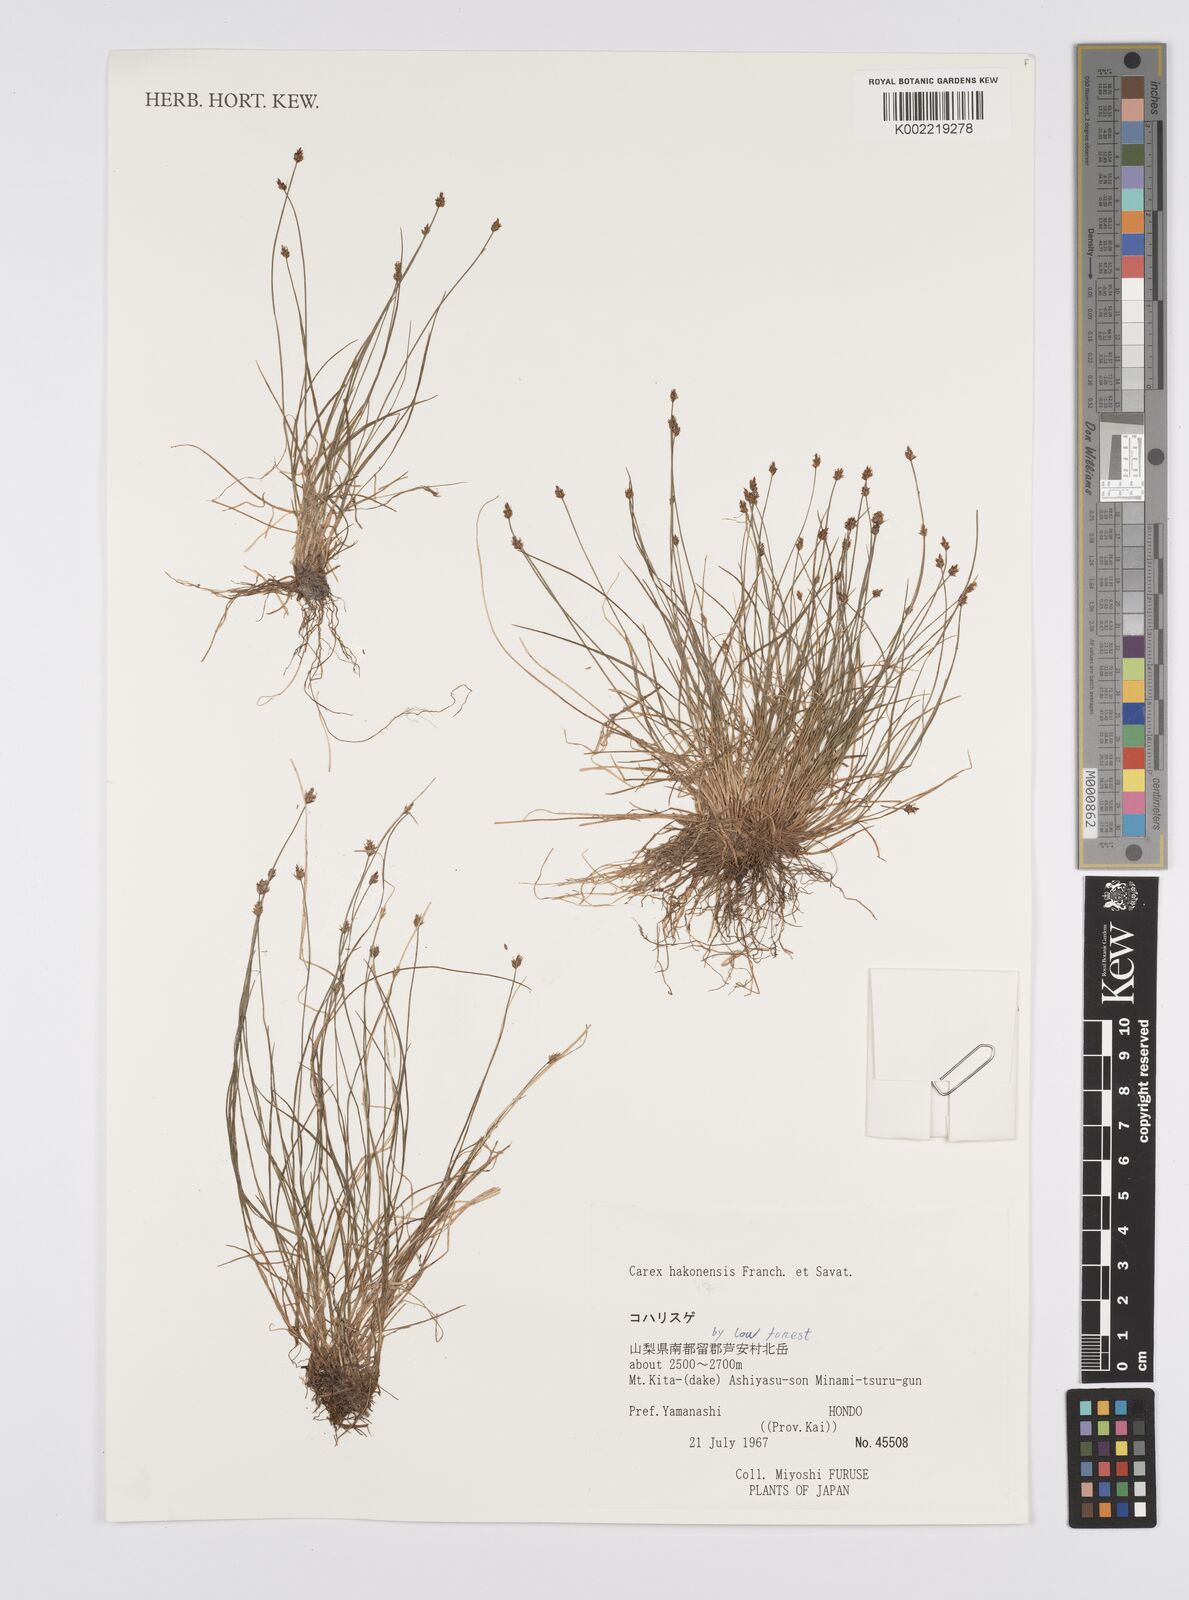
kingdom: Plantae
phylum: Tracheophyta
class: Liliopsida
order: Poales
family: Cyperaceae
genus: Carex
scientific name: Carex onoei
